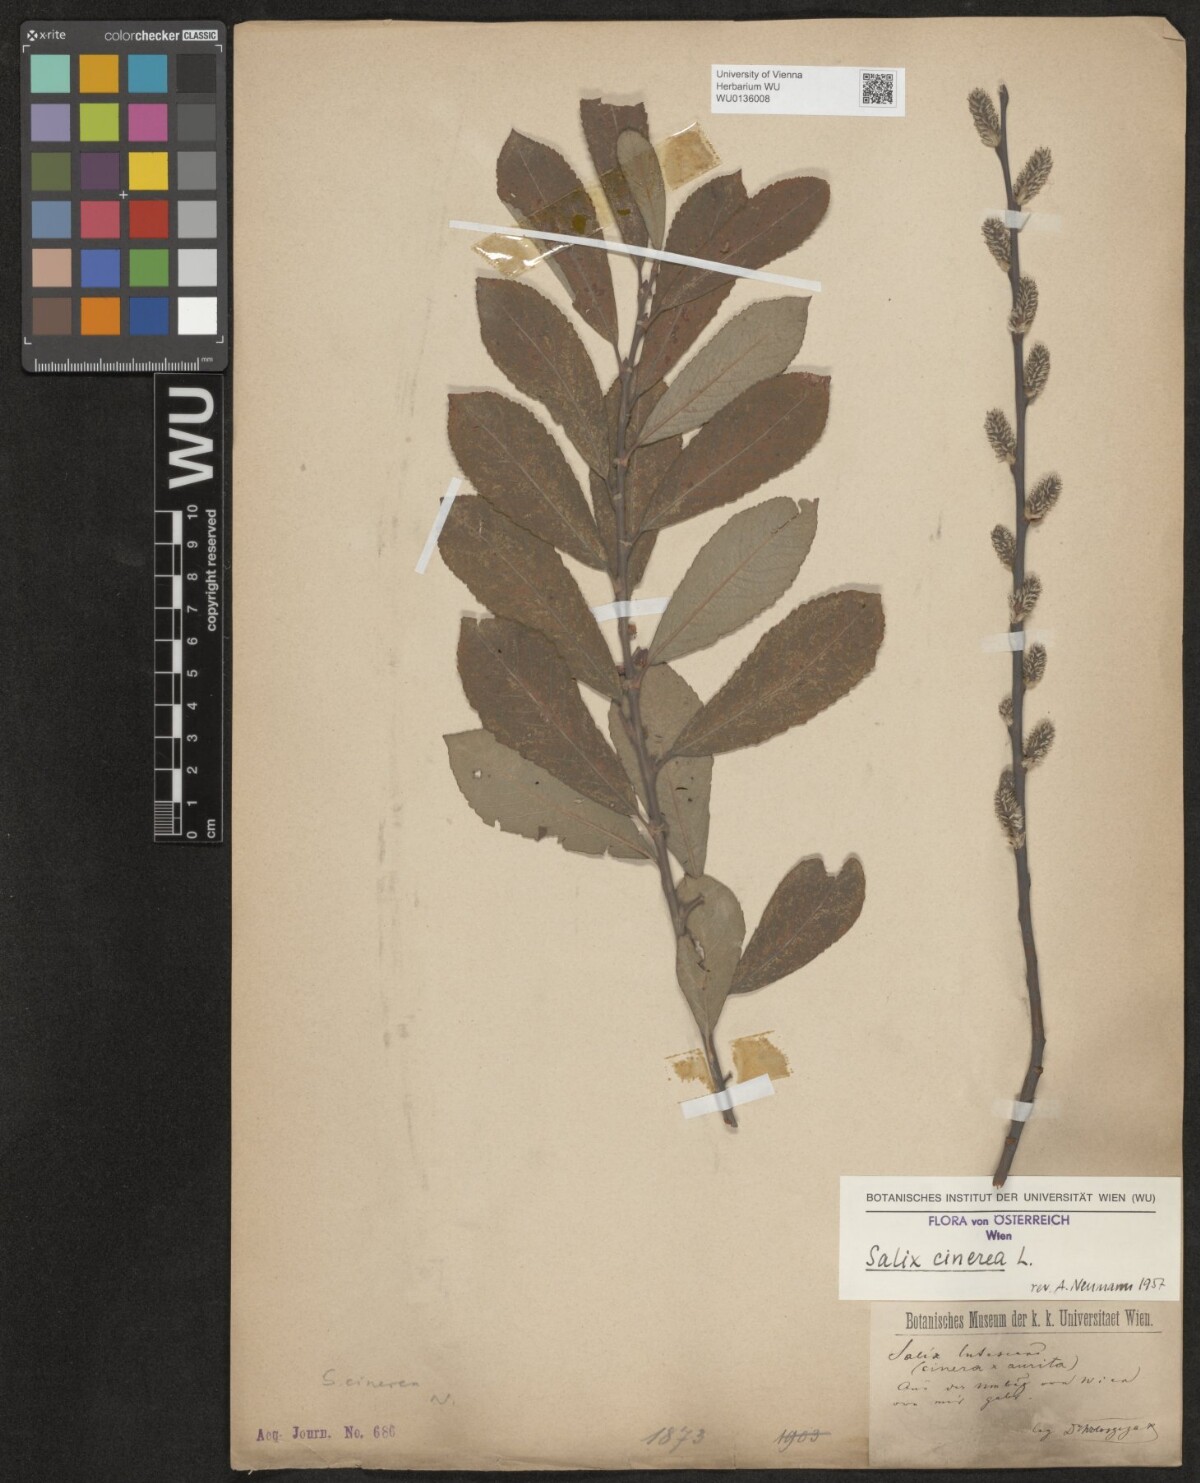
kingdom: Plantae
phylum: Tracheophyta
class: Magnoliopsida
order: Malpighiales
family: Salicaceae
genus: Salix
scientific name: Salix cinerea
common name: Common sallow
